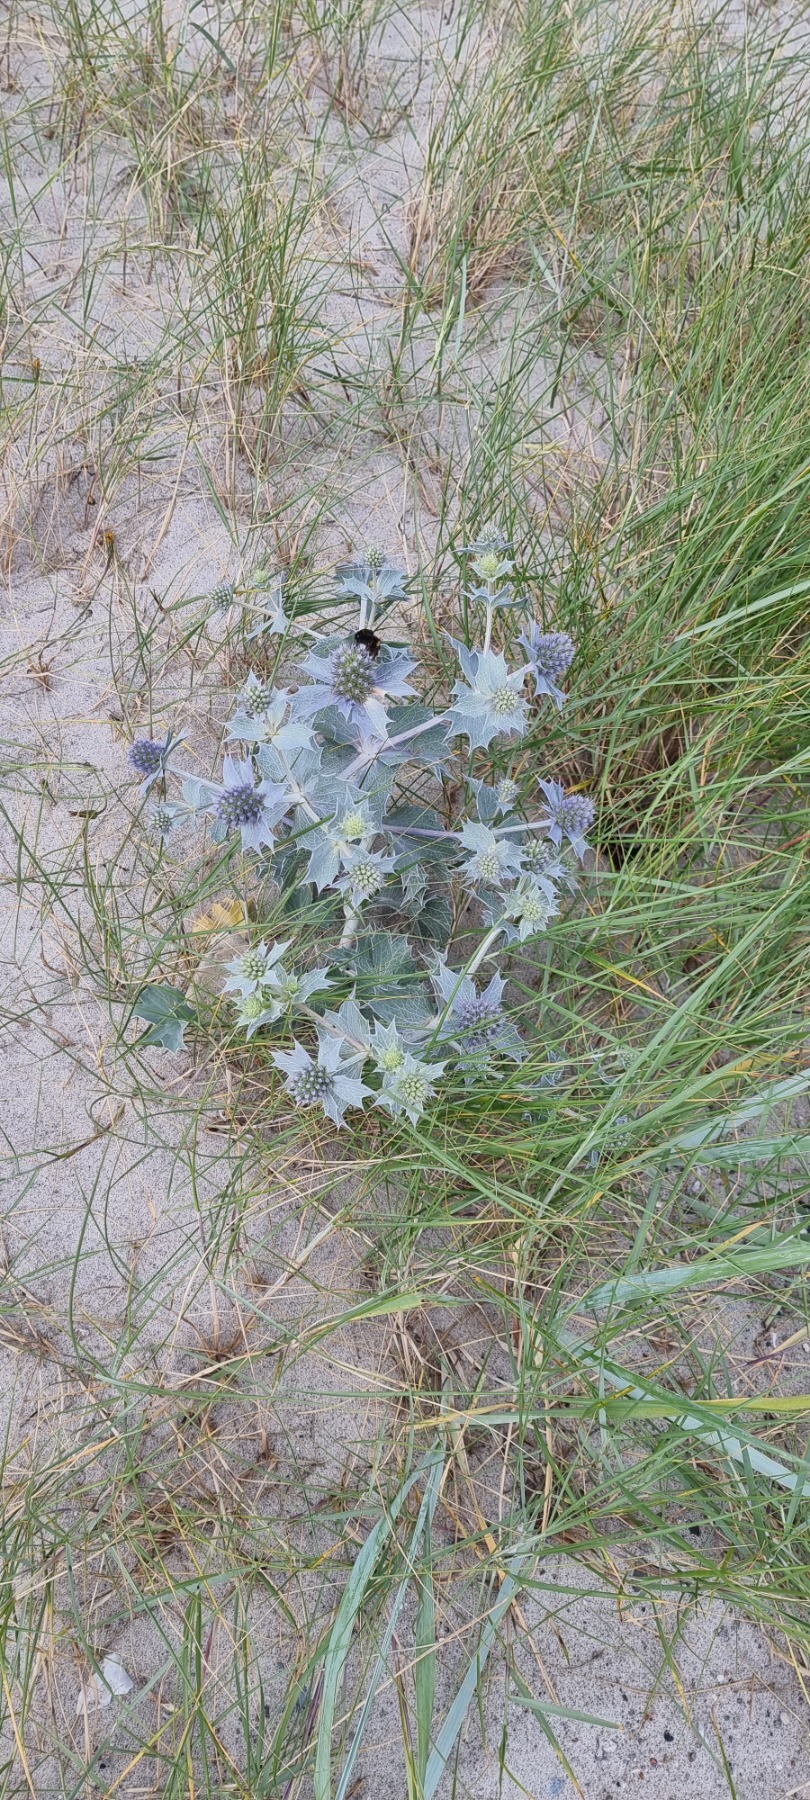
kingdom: Plantae
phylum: Tracheophyta
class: Magnoliopsida
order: Apiales
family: Apiaceae
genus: Eryngium
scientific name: Eryngium maritimum
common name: Strand-mandstro
